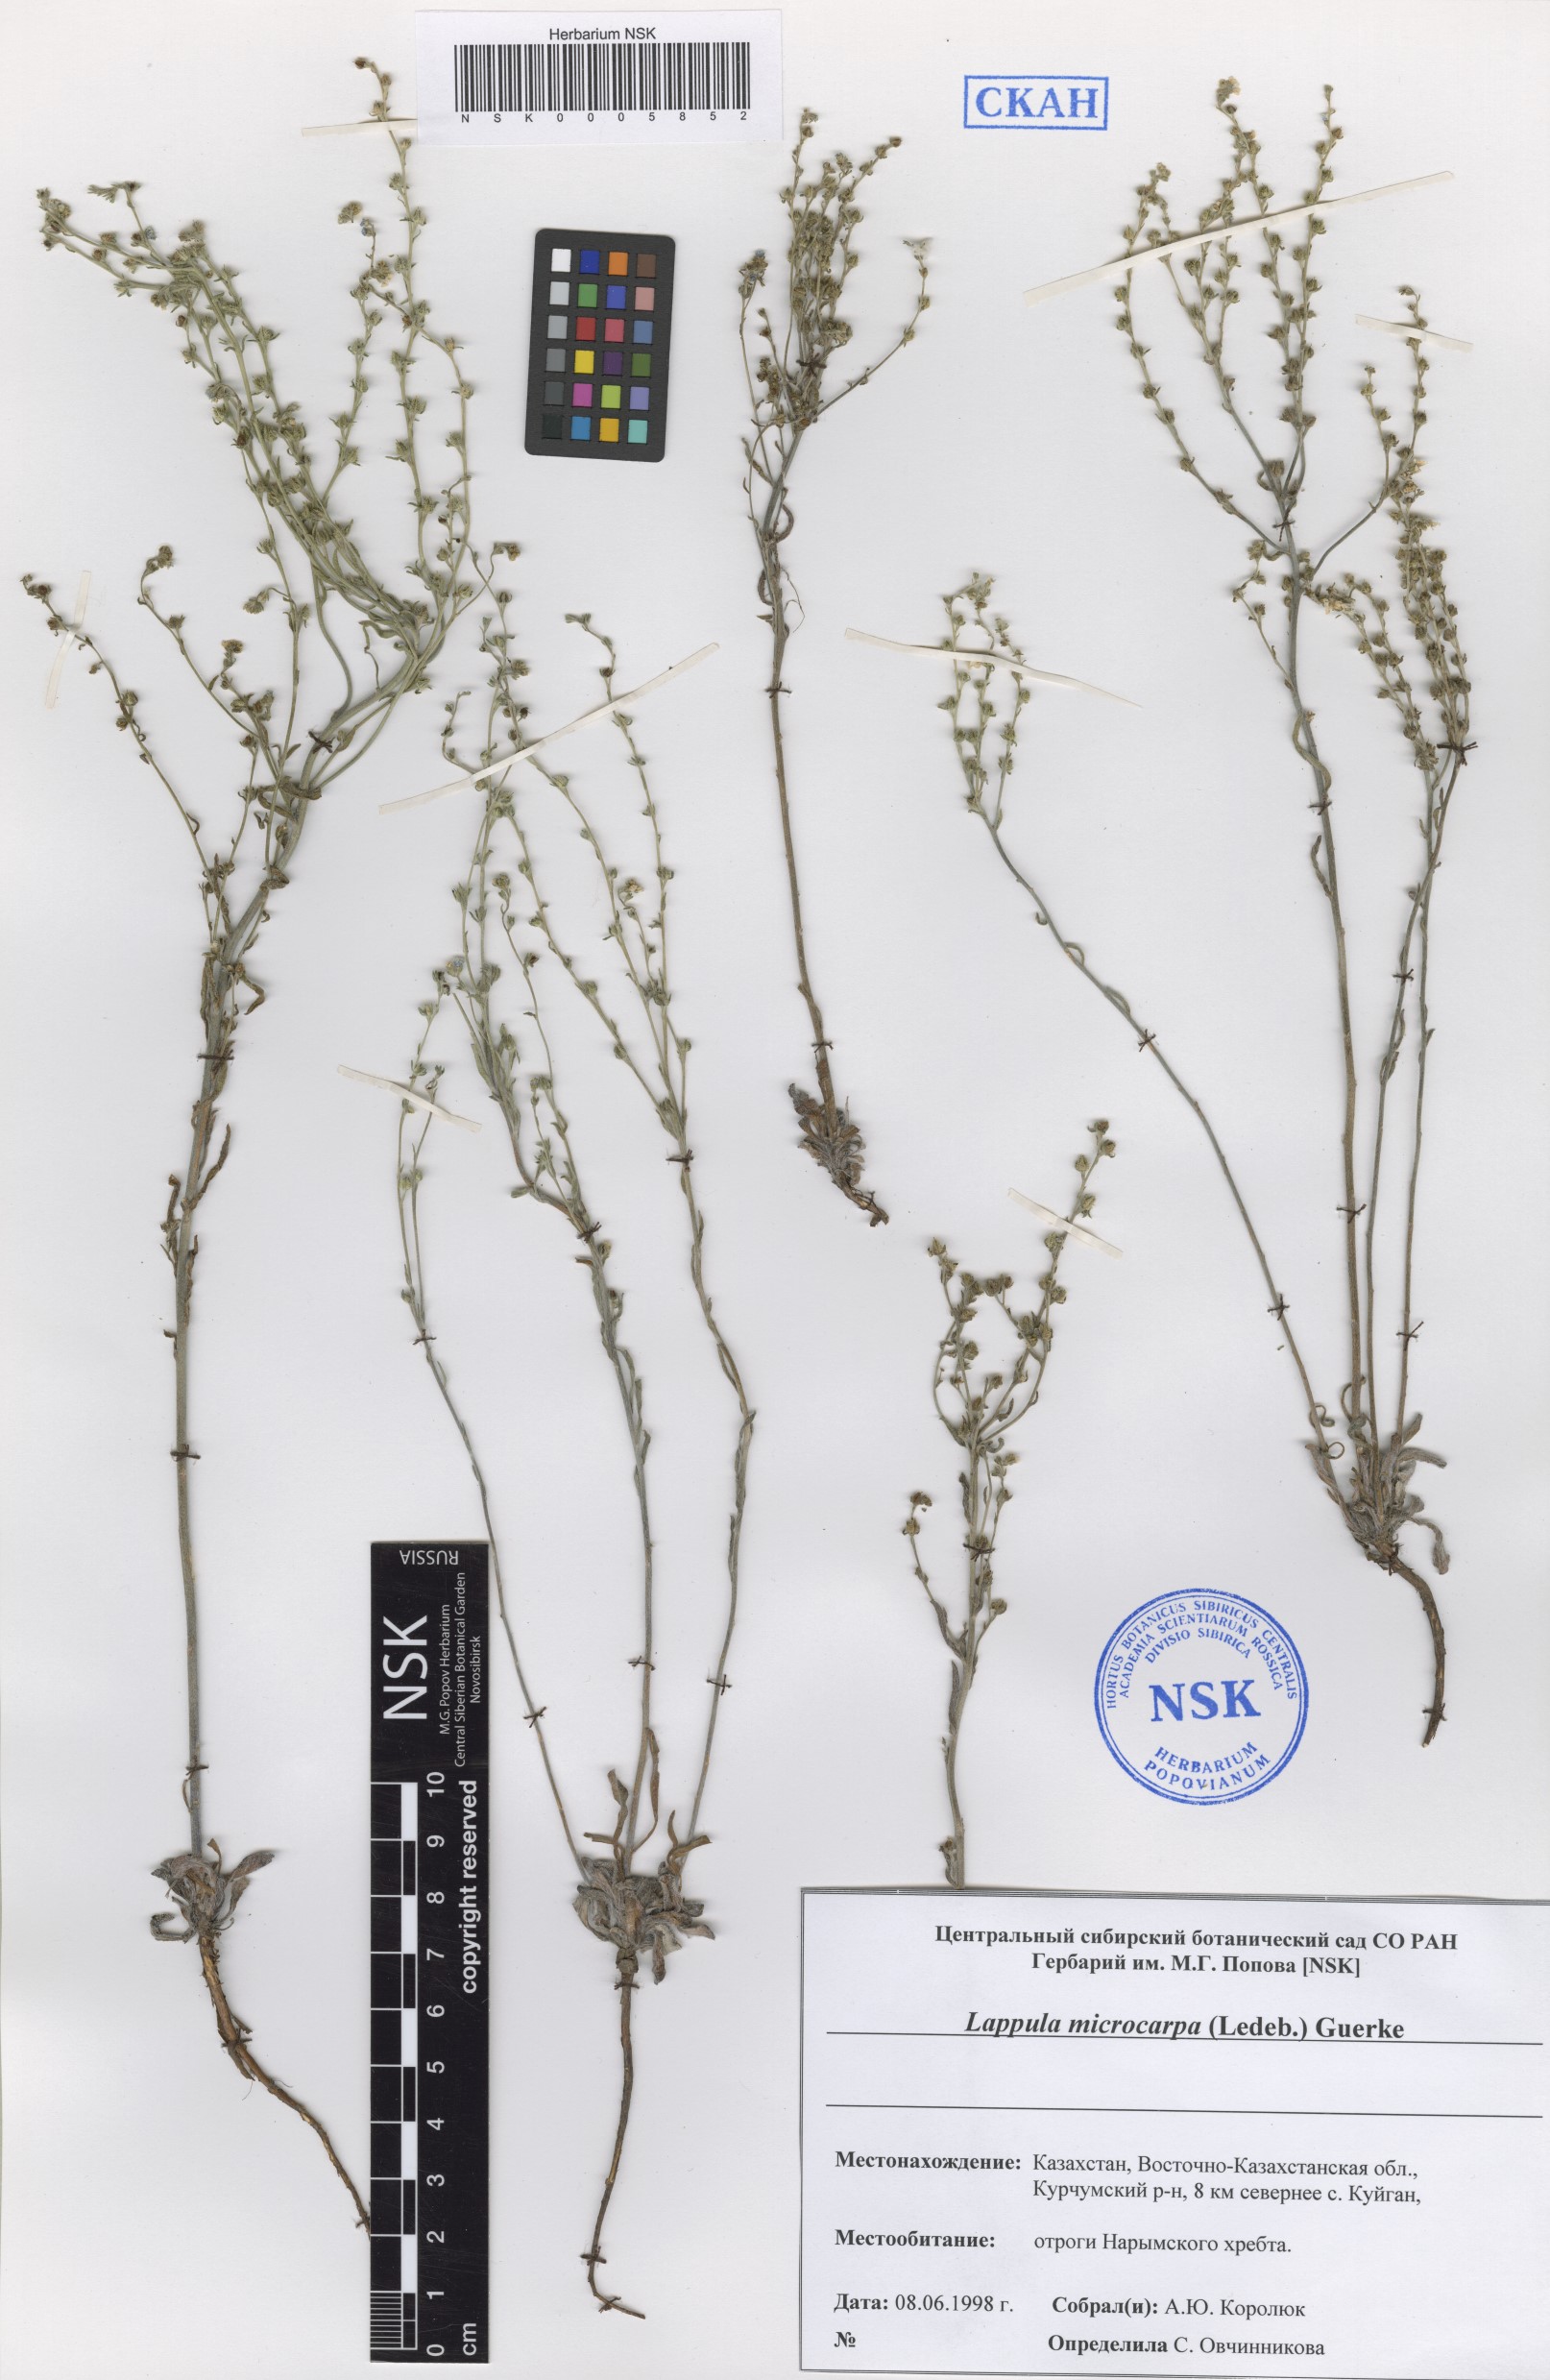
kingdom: Plantae
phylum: Tracheophyta
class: Magnoliopsida
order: Boraginales
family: Boraginaceae
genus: Lappula
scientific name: Lappula microcarpa
